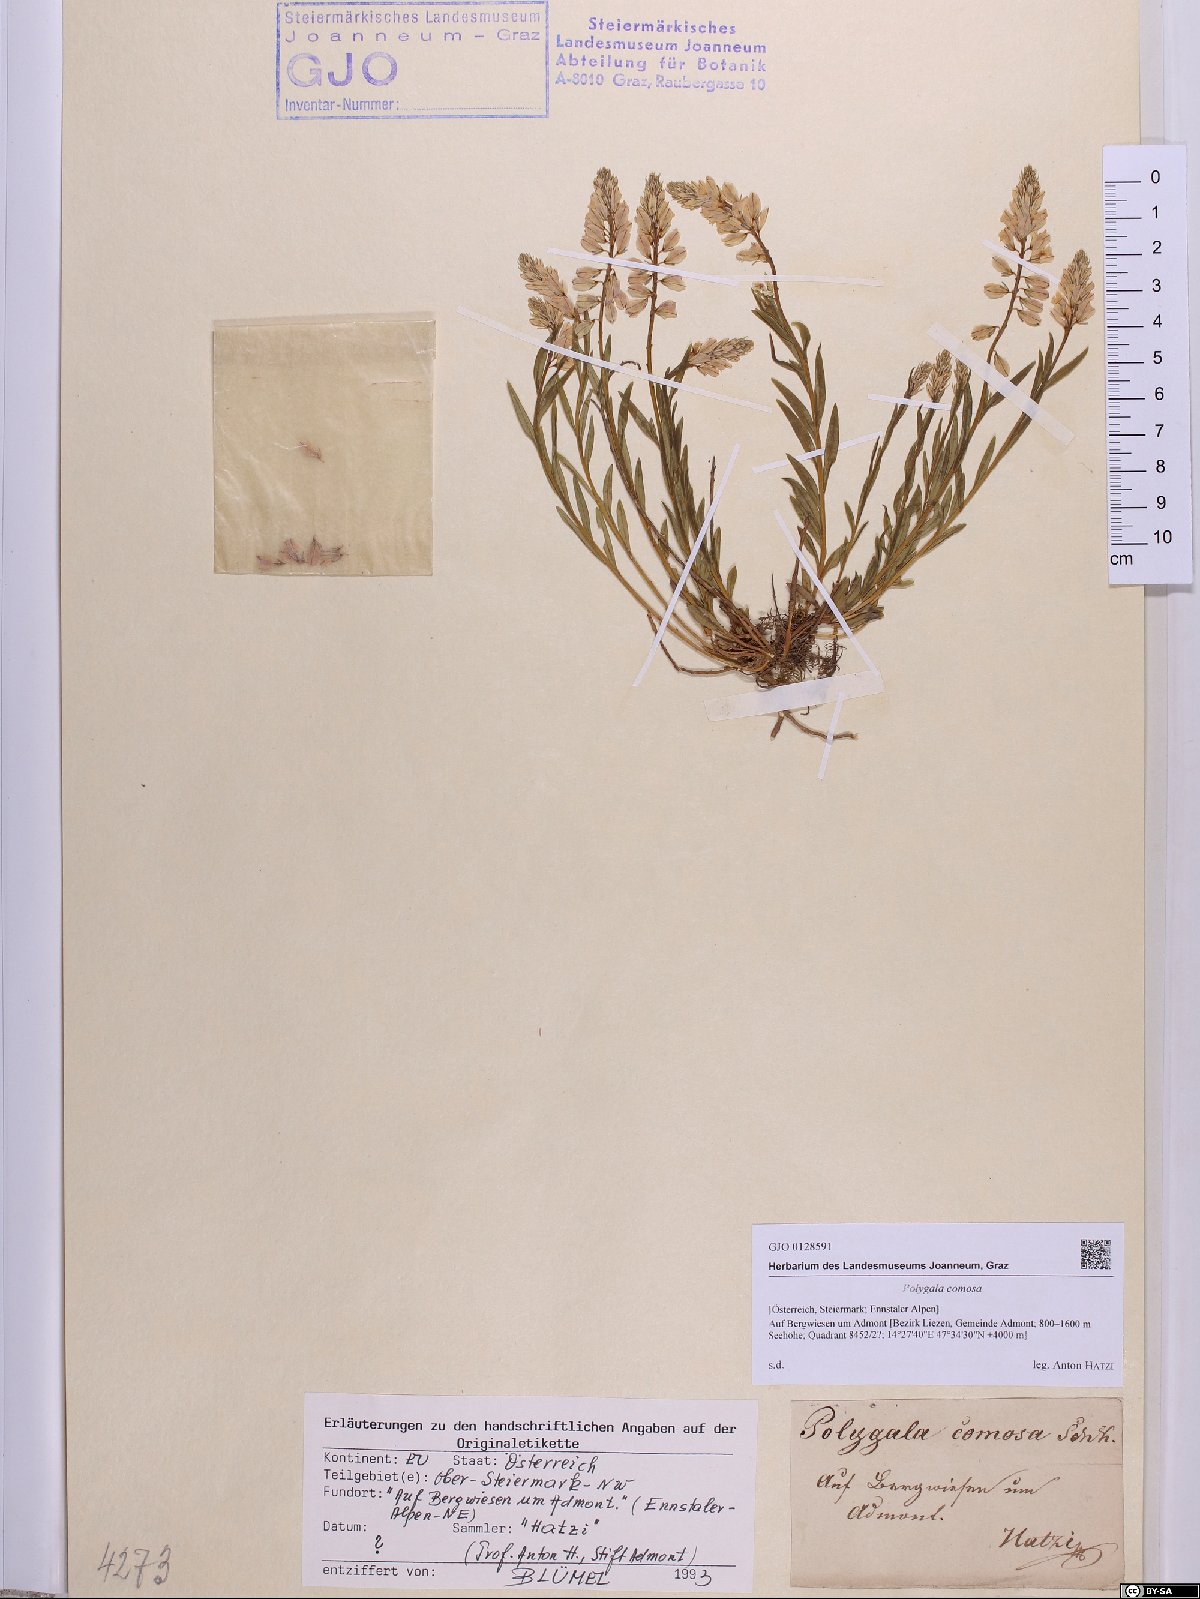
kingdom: Plantae
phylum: Tracheophyta
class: Magnoliopsida
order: Fabales
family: Polygalaceae
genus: Polygala
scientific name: Polygala comosa
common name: Tufted milkwort
